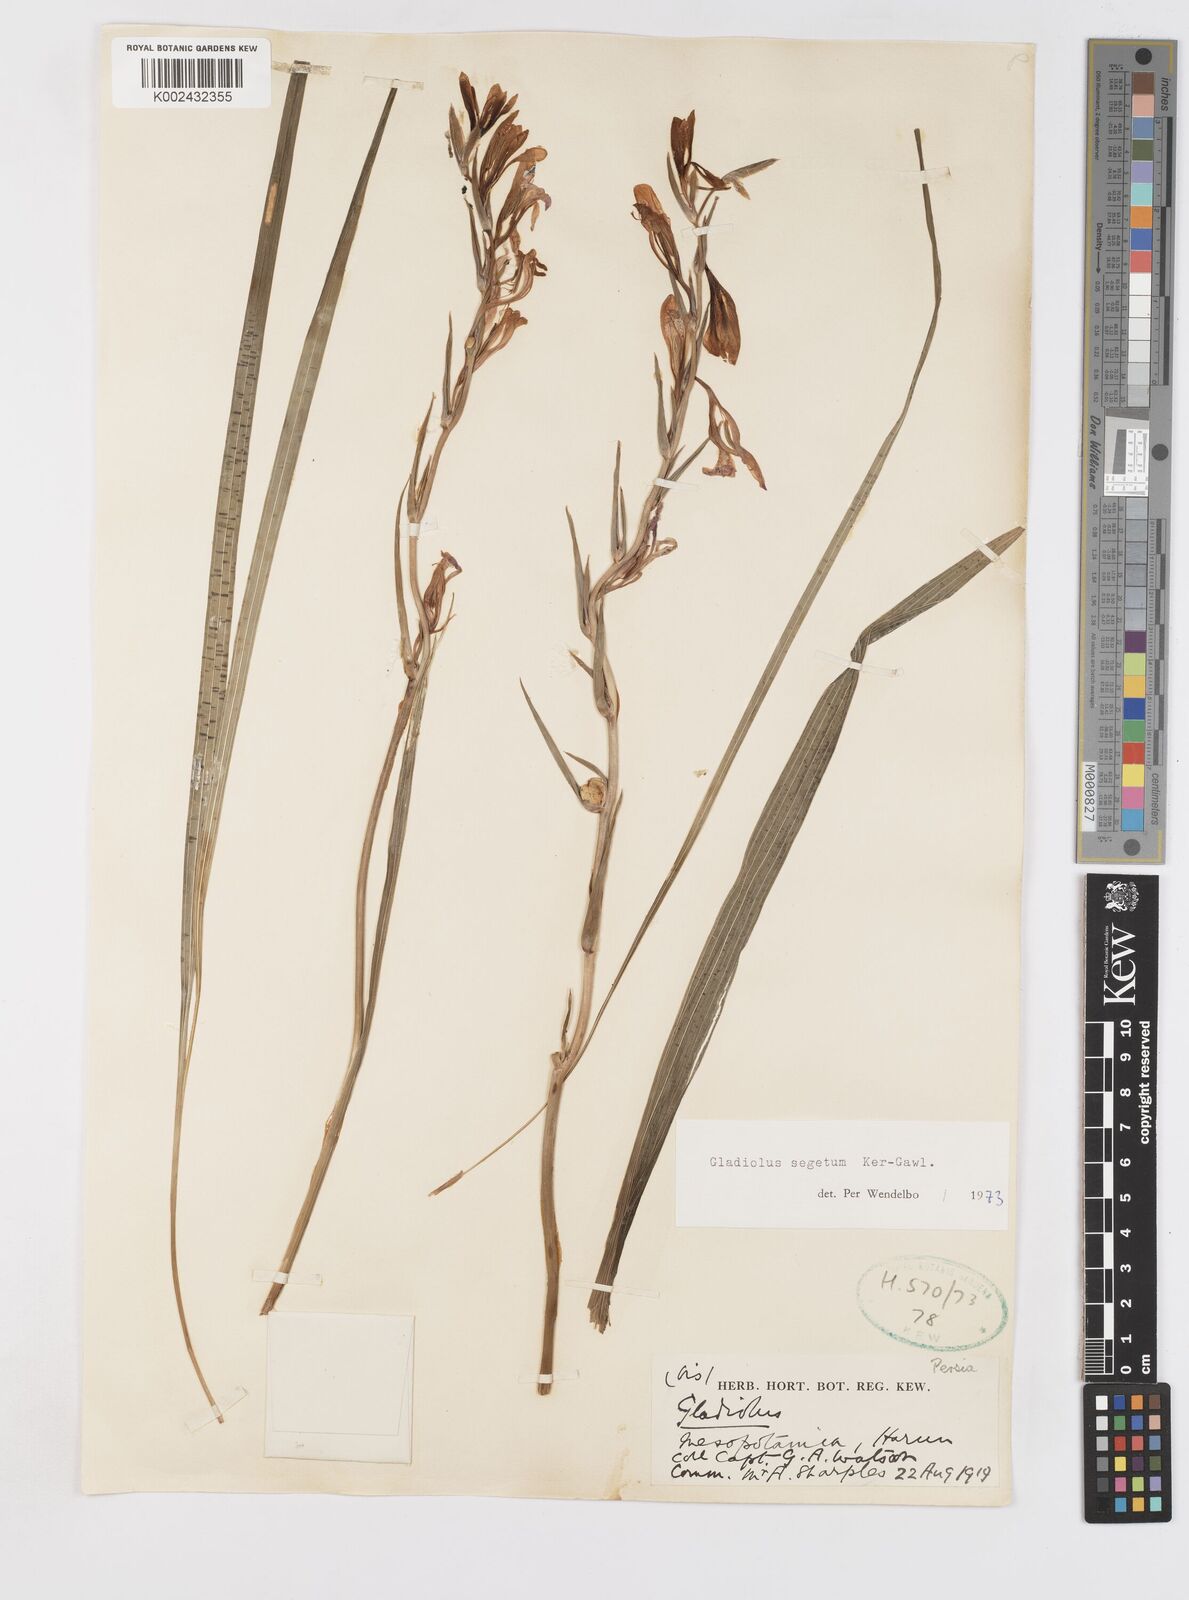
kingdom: Plantae
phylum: Tracheophyta
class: Liliopsida
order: Asparagales
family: Iridaceae
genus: Gladiolus
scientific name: Gladiolus italicus
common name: Field gladiolus
